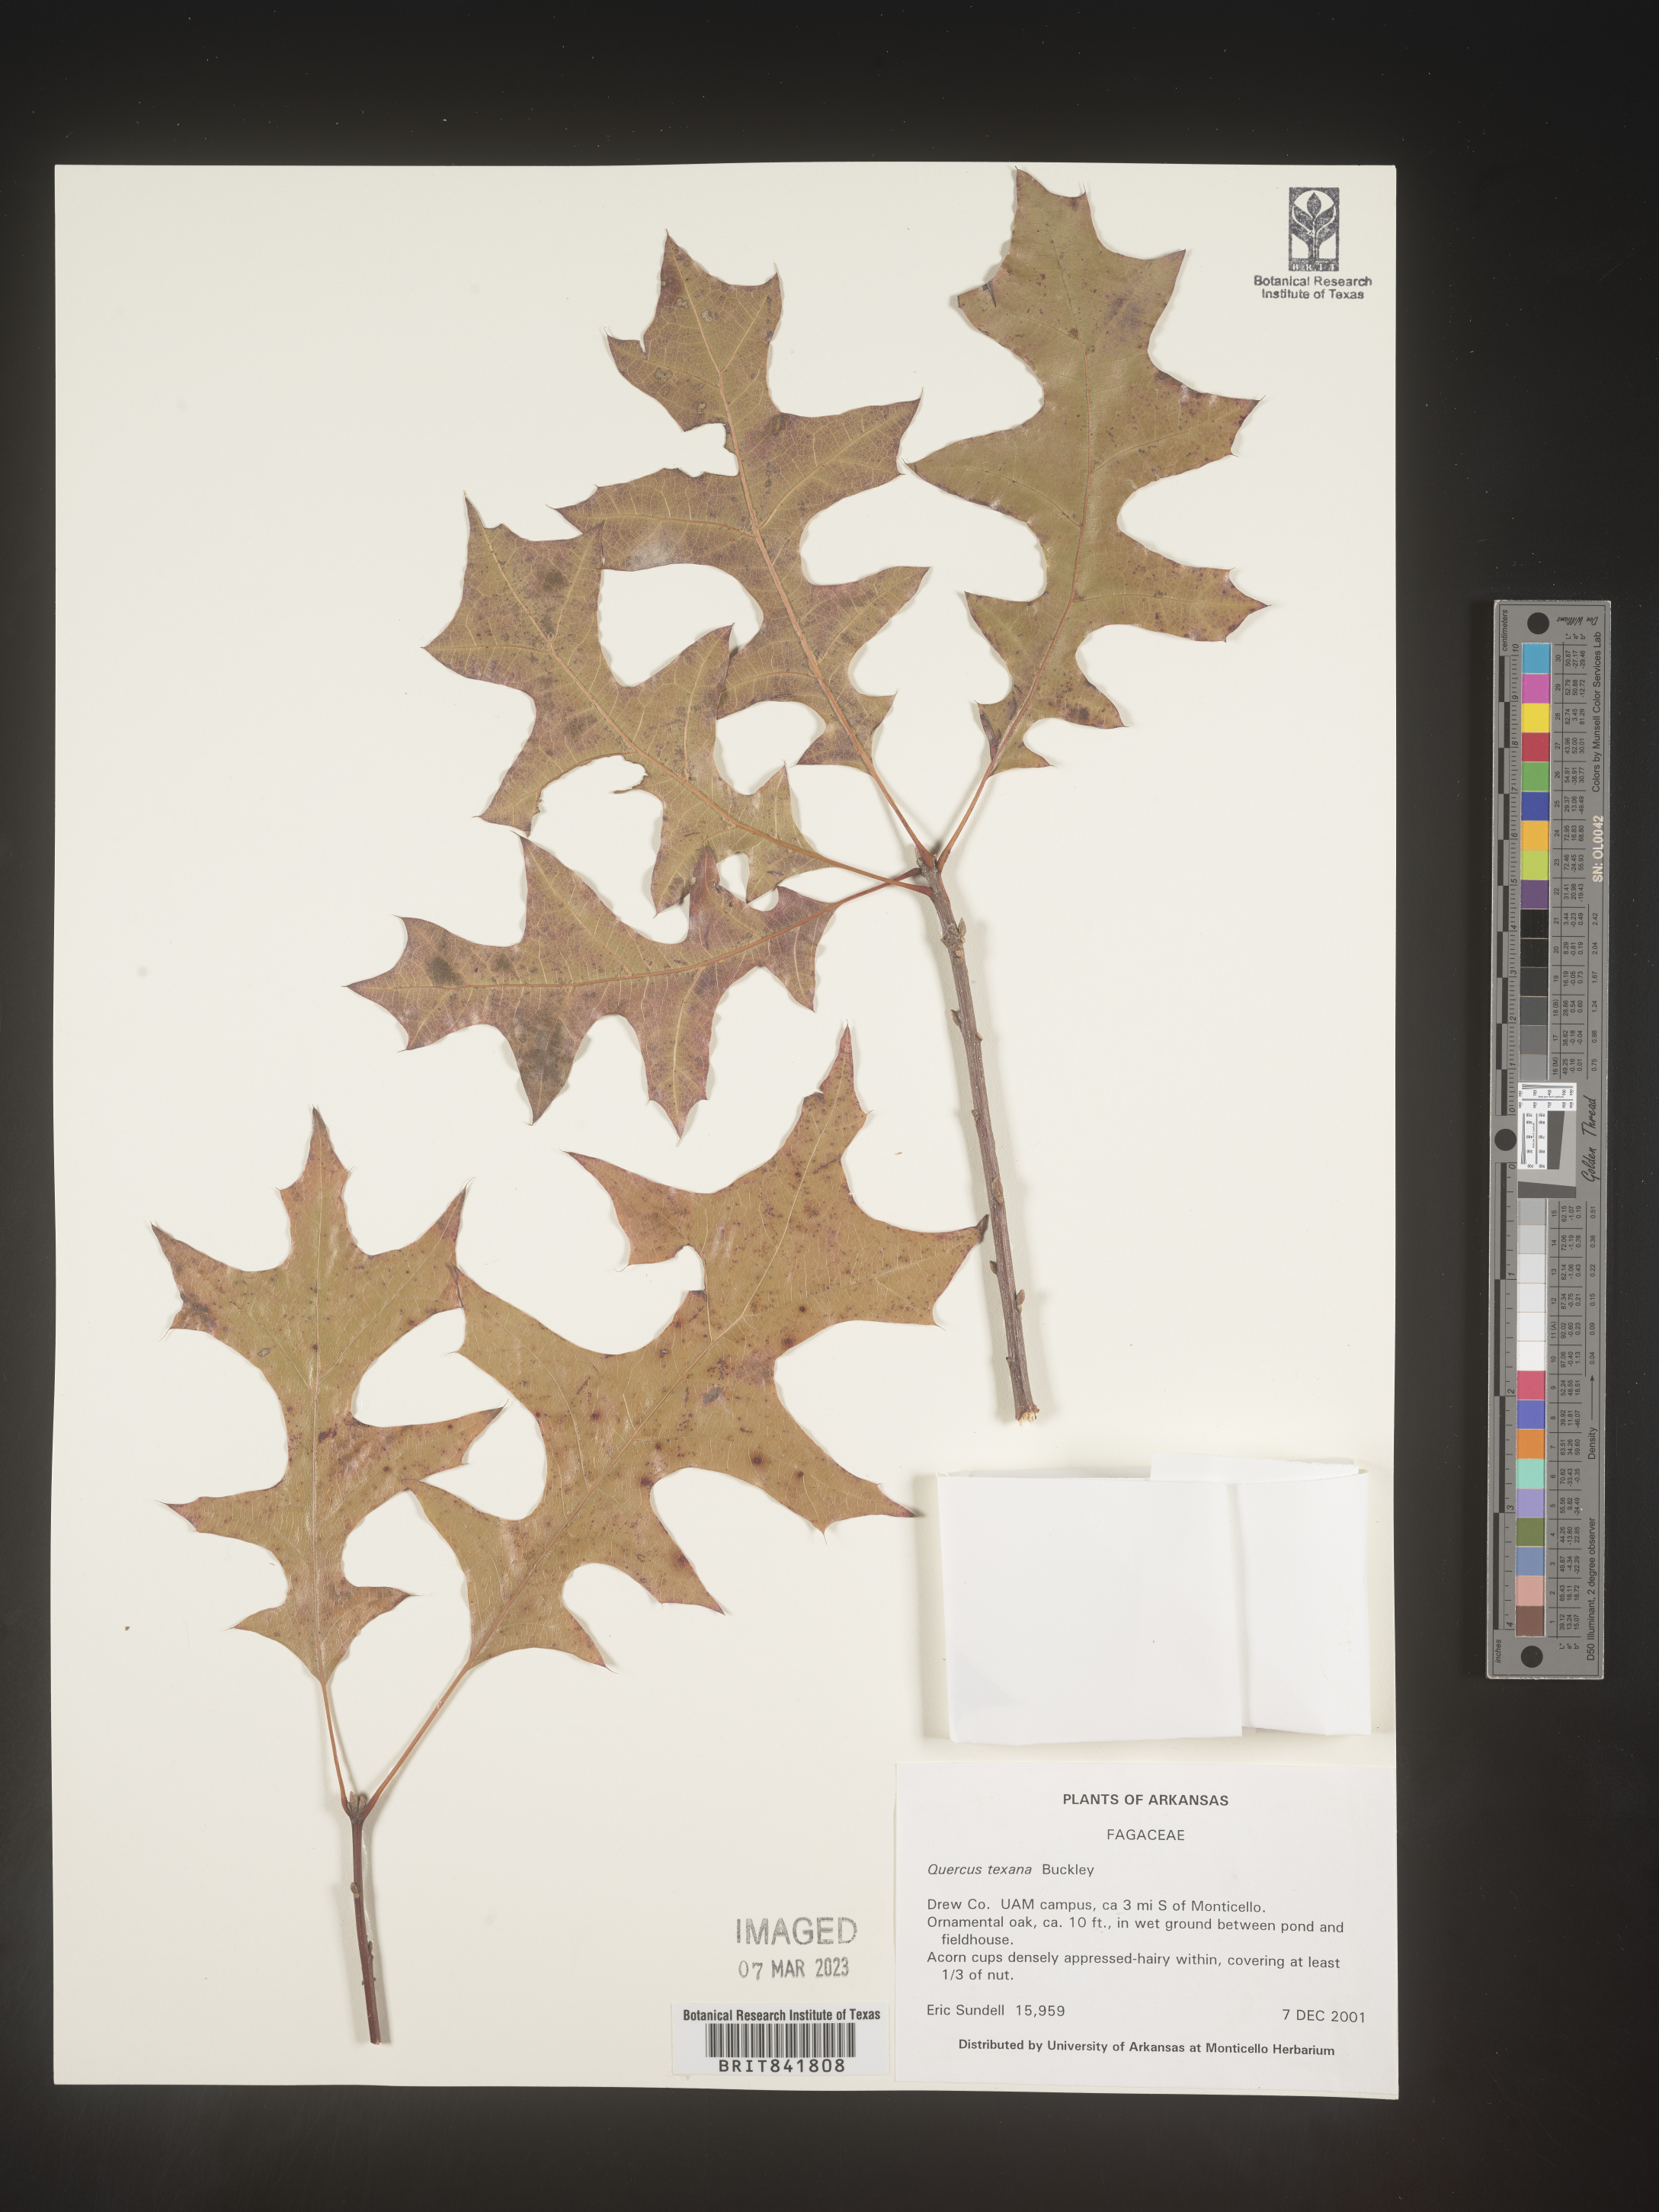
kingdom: Plantae
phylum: Tracheophyta
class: Magnoliopsida
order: Fagales
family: Fagaceae
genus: Quercus
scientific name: Quercus texana
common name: Nuttall oak
